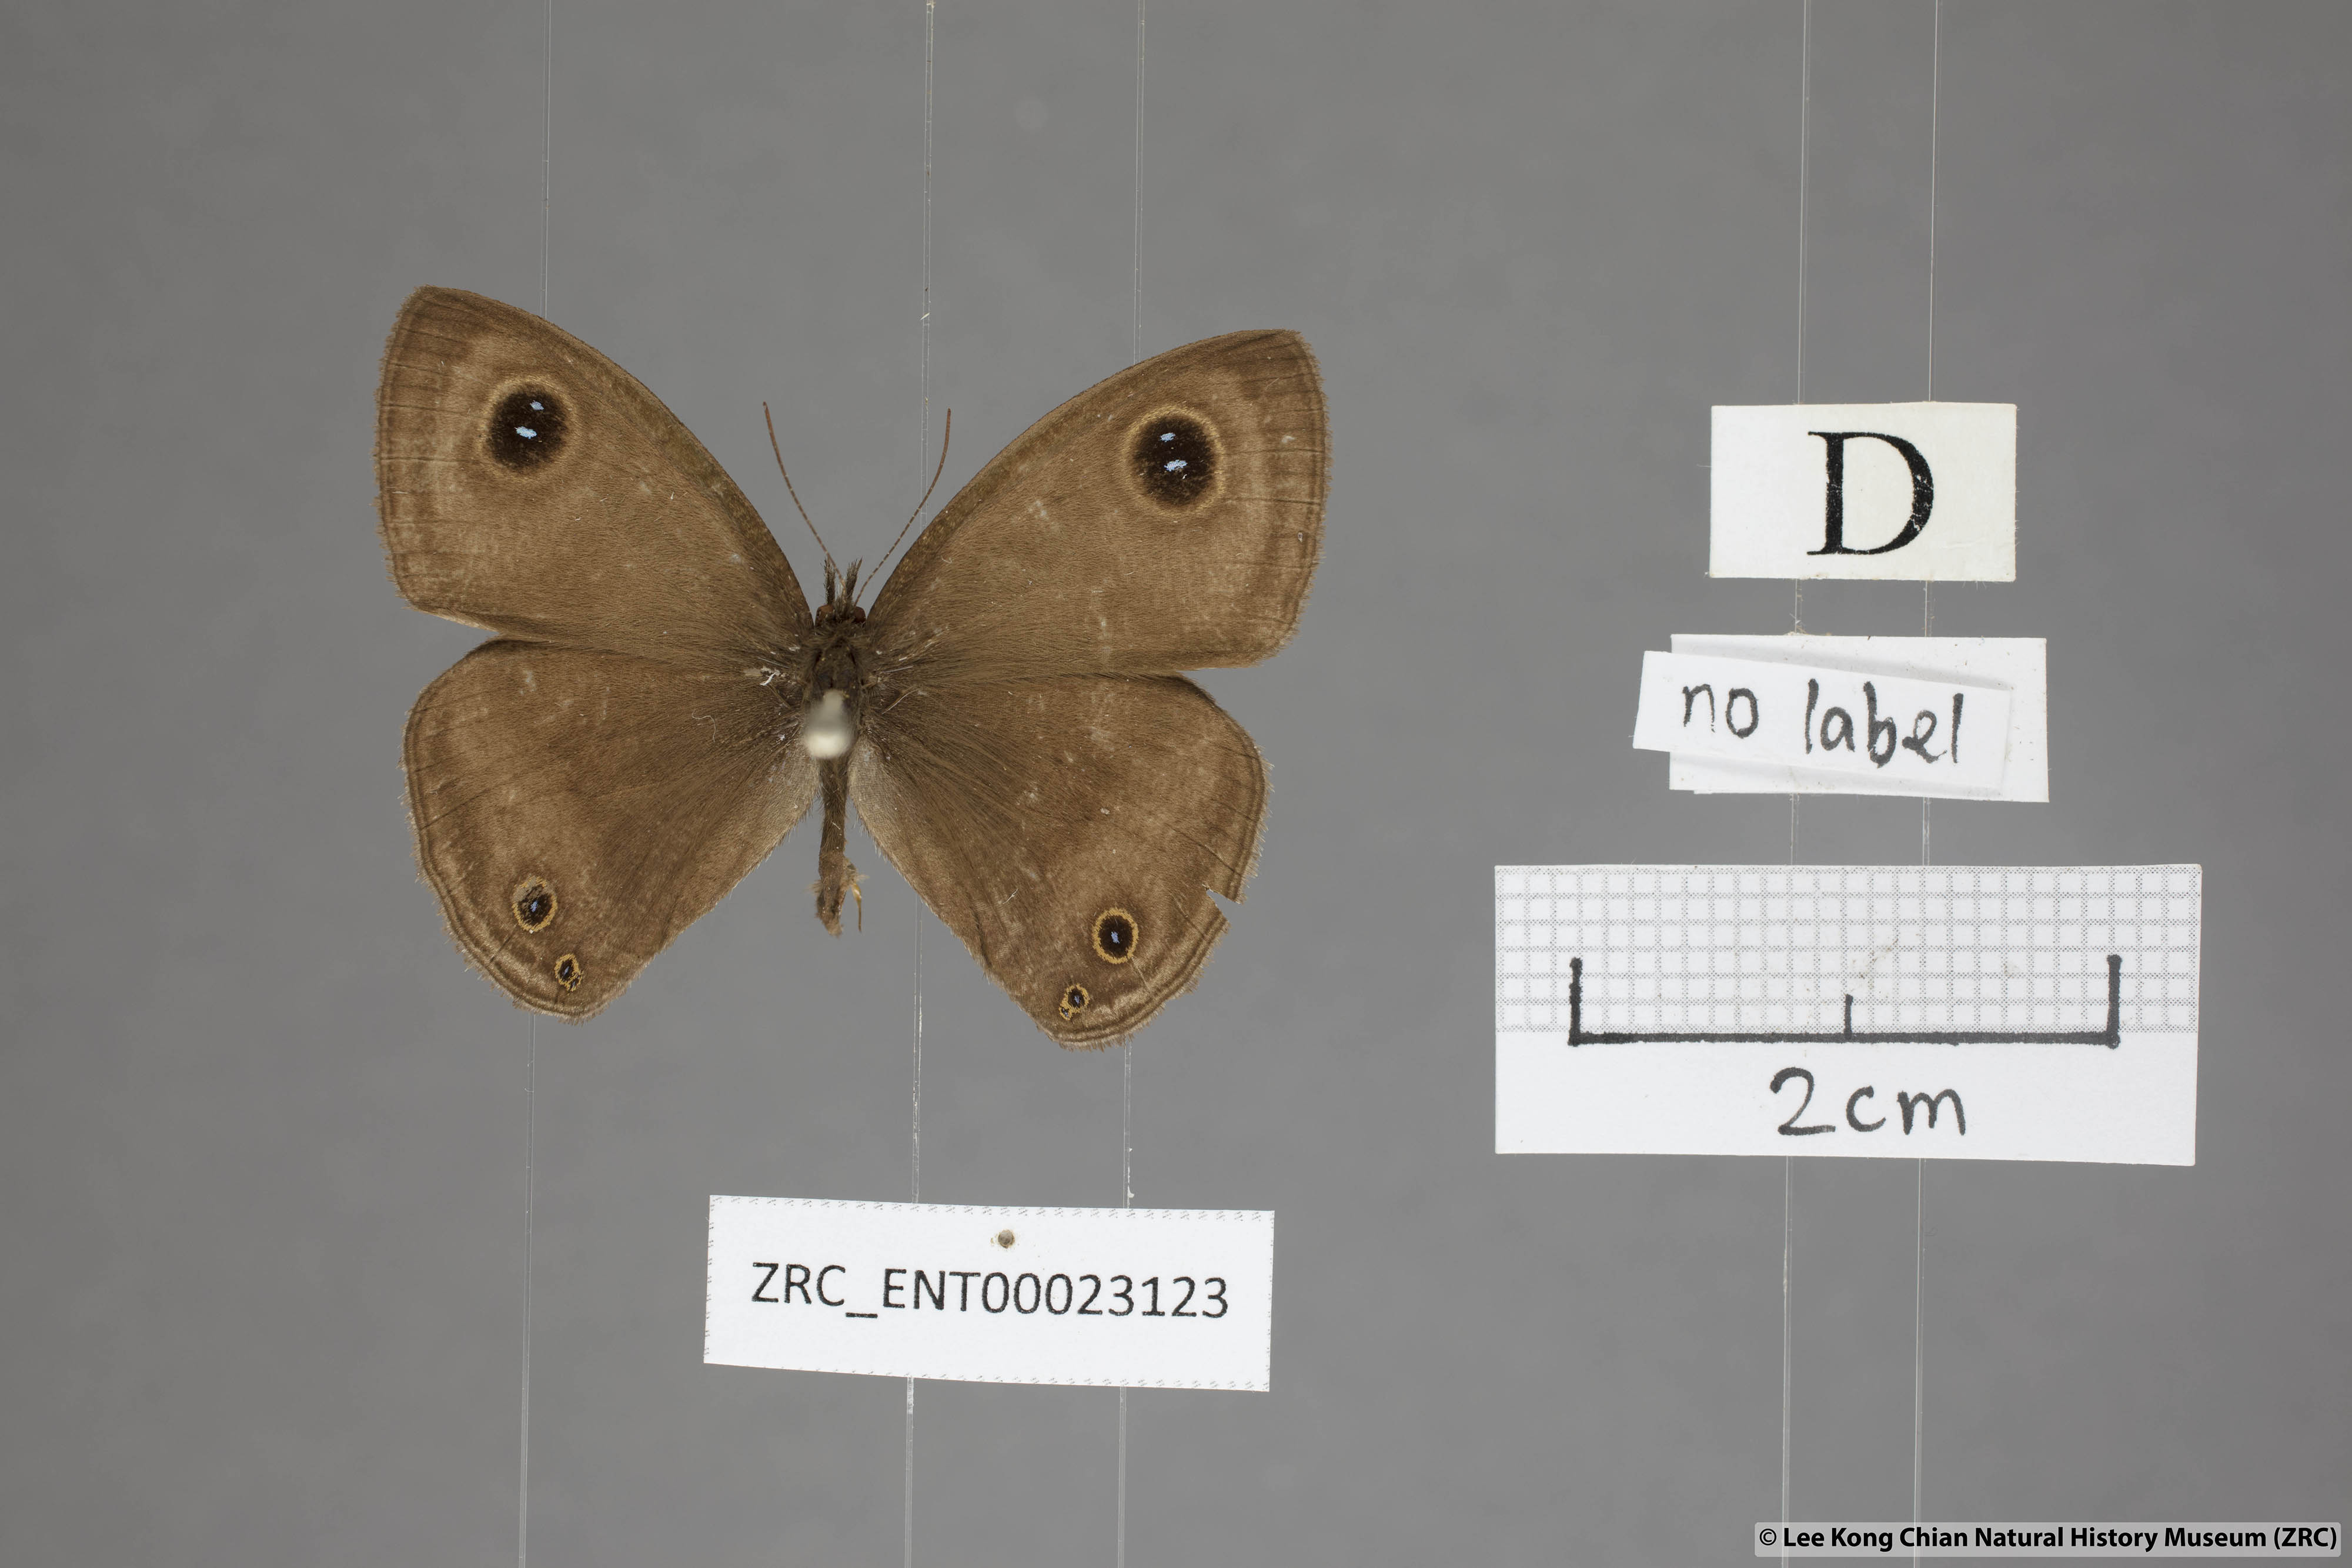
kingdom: Animalia
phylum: Arthropoda
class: Insecta
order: Lepidoptera
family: Nymphalidae
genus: Ypthima
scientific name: Ypthima pandocus
